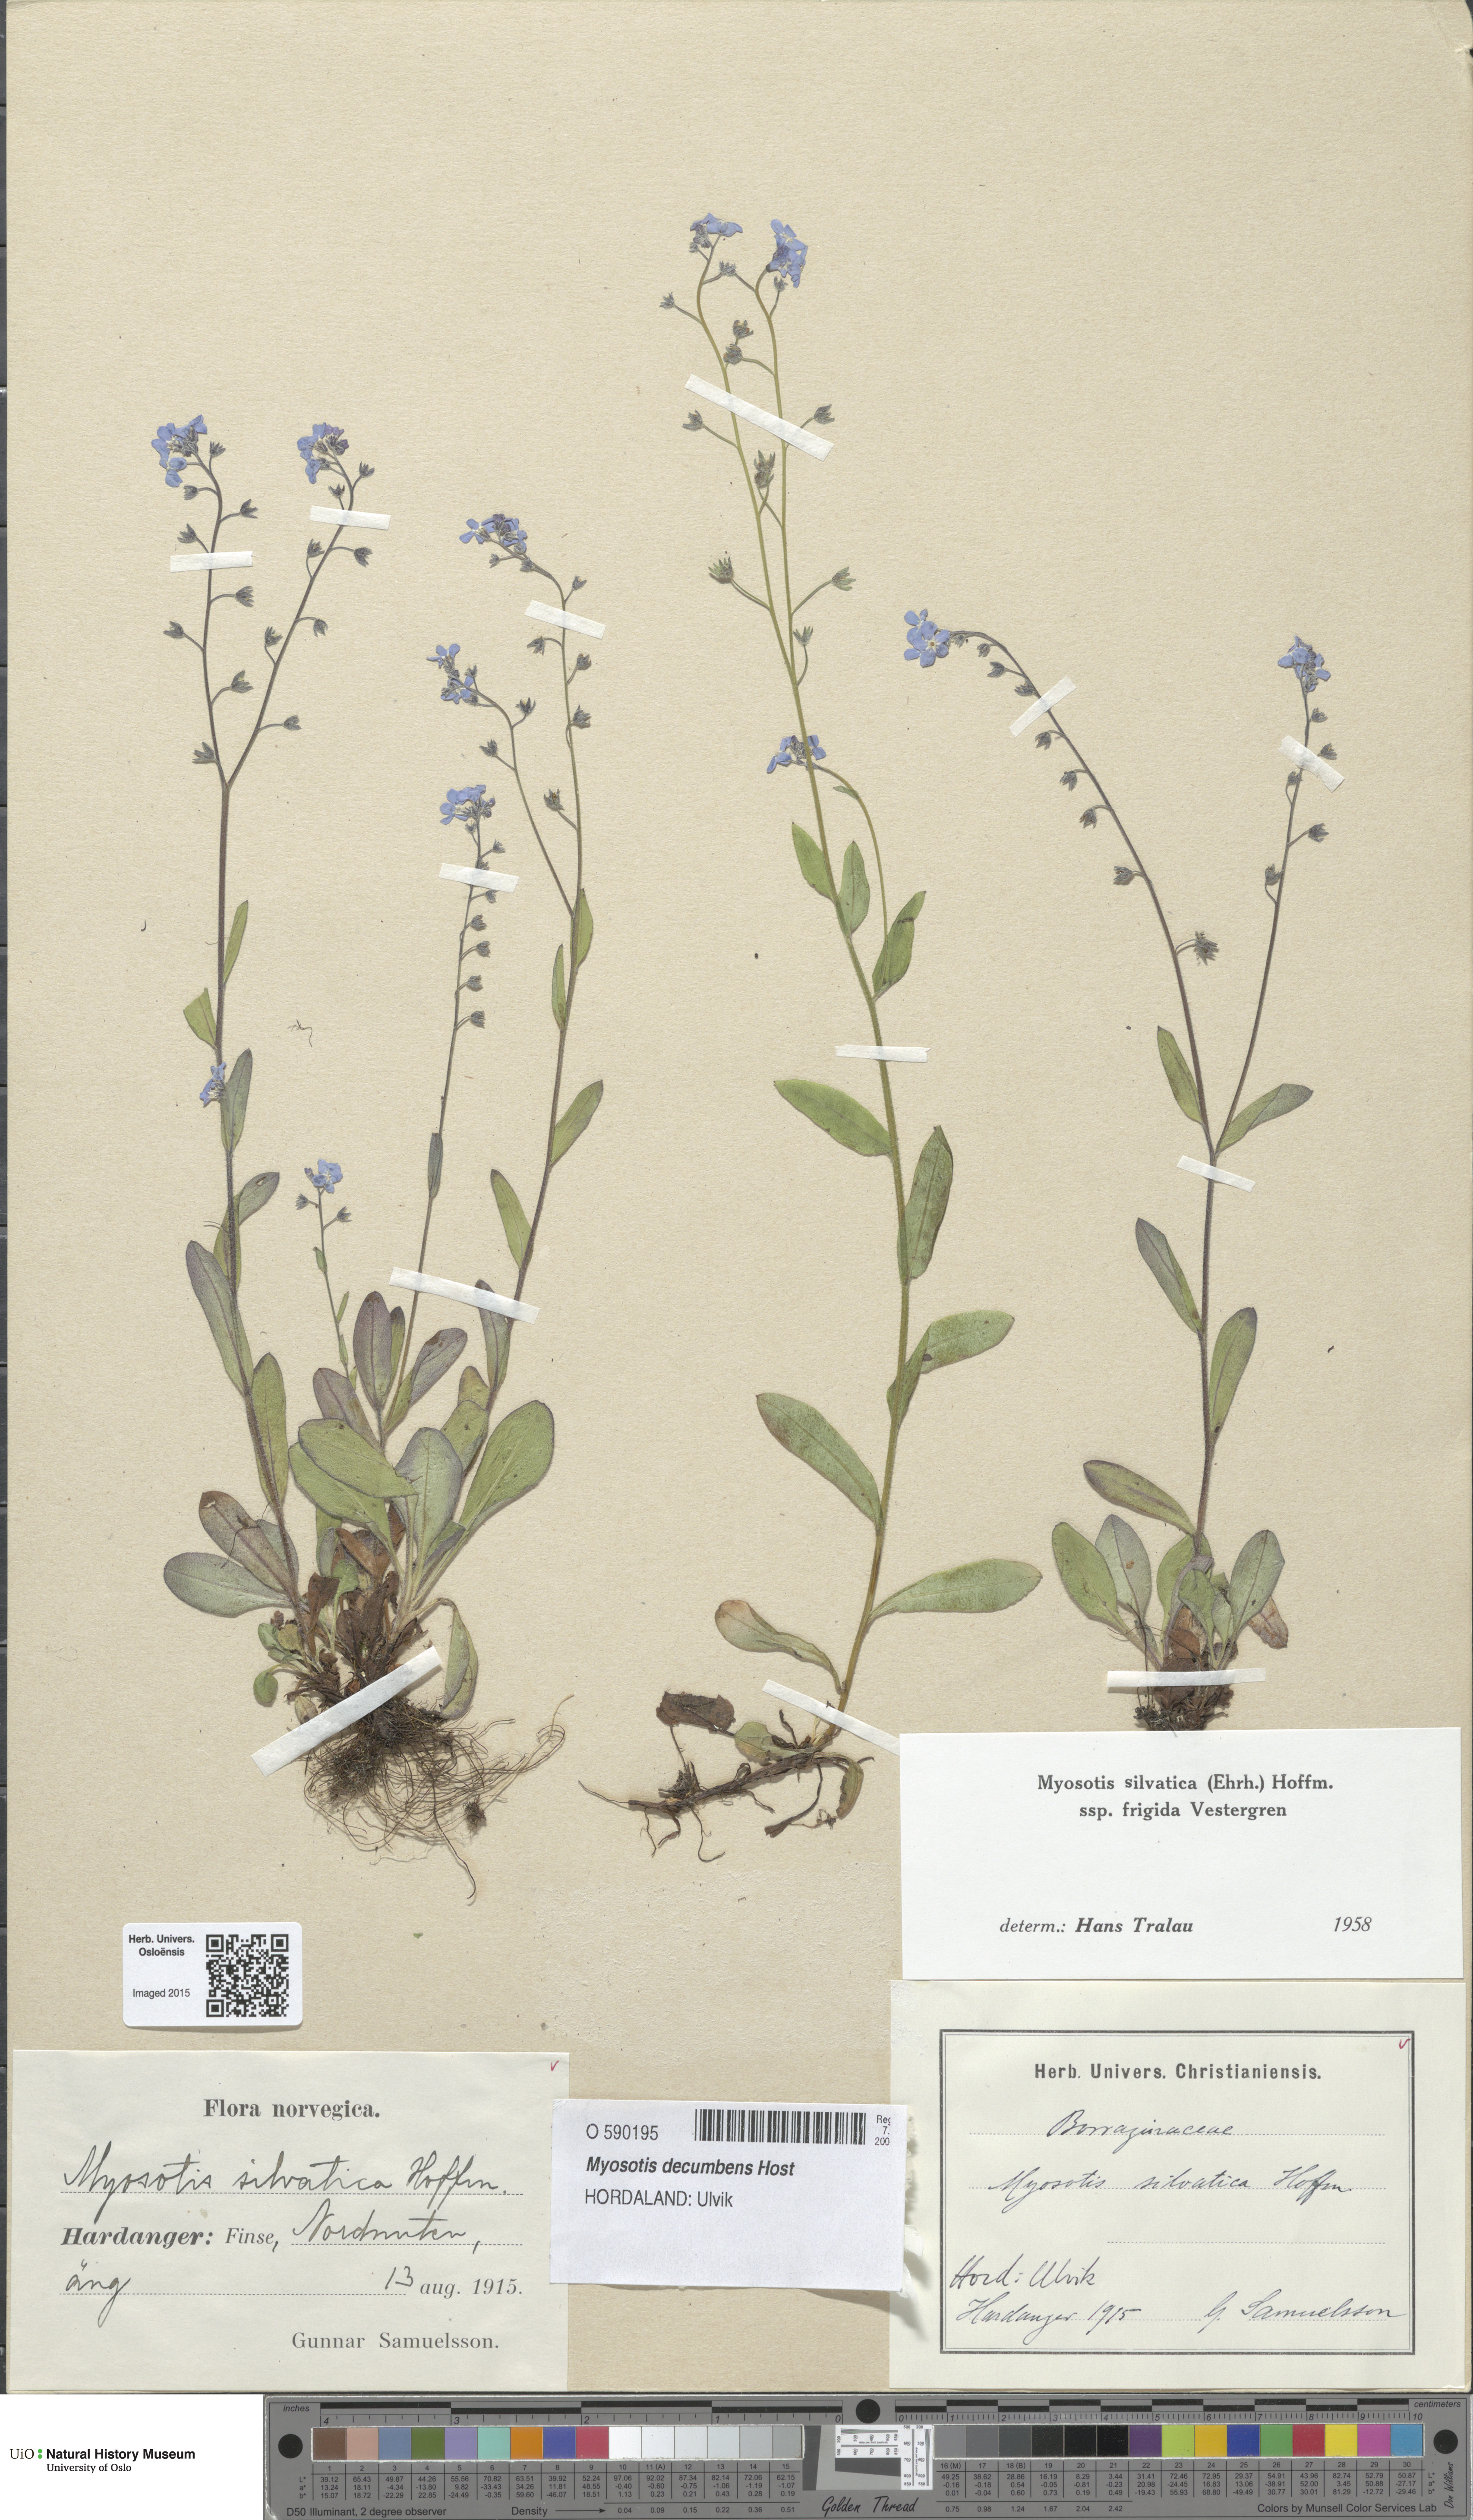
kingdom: Plantae
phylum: Tracheophyta
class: Magnoliopsida
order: Boraginales
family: Boraginaceae
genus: Myosotis
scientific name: Myosotis decumbens
